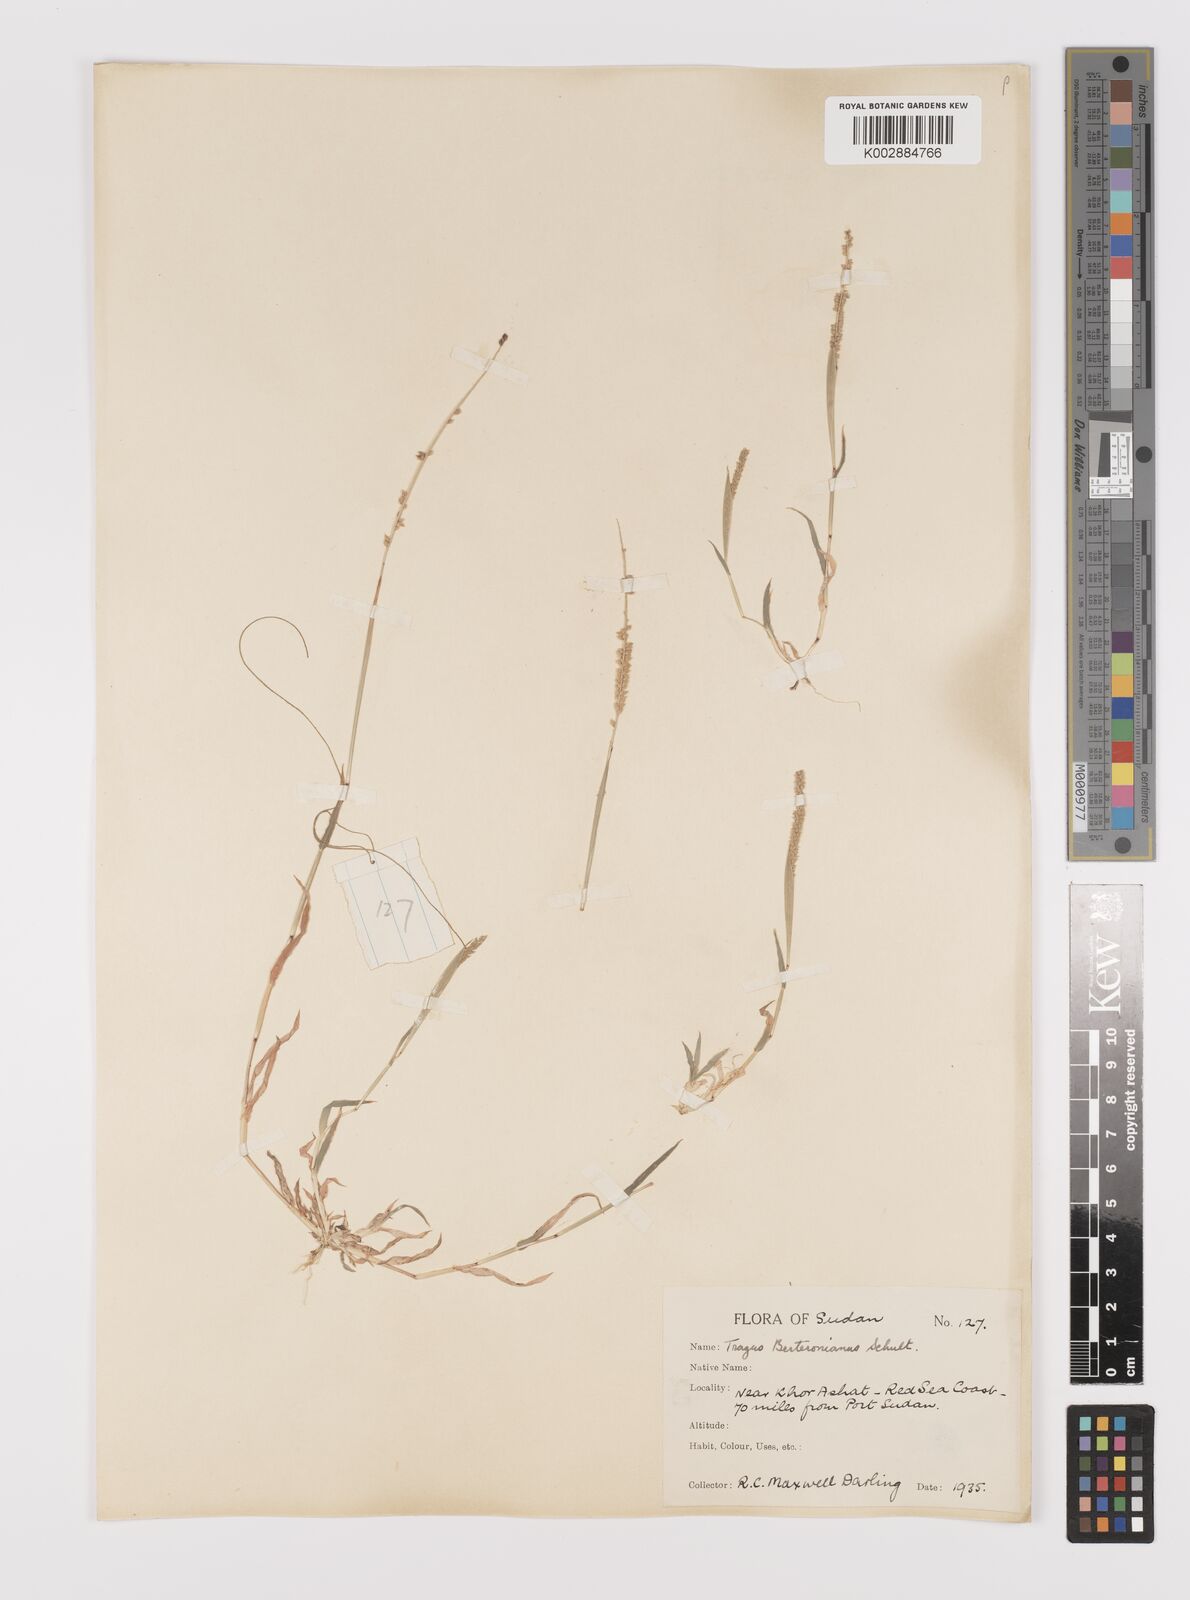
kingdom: Plantae
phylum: Tracheophyta
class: Liliopsida
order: Poales
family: Poaceae
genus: Tragus
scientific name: Tragus berteronianus
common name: African bur-grass
